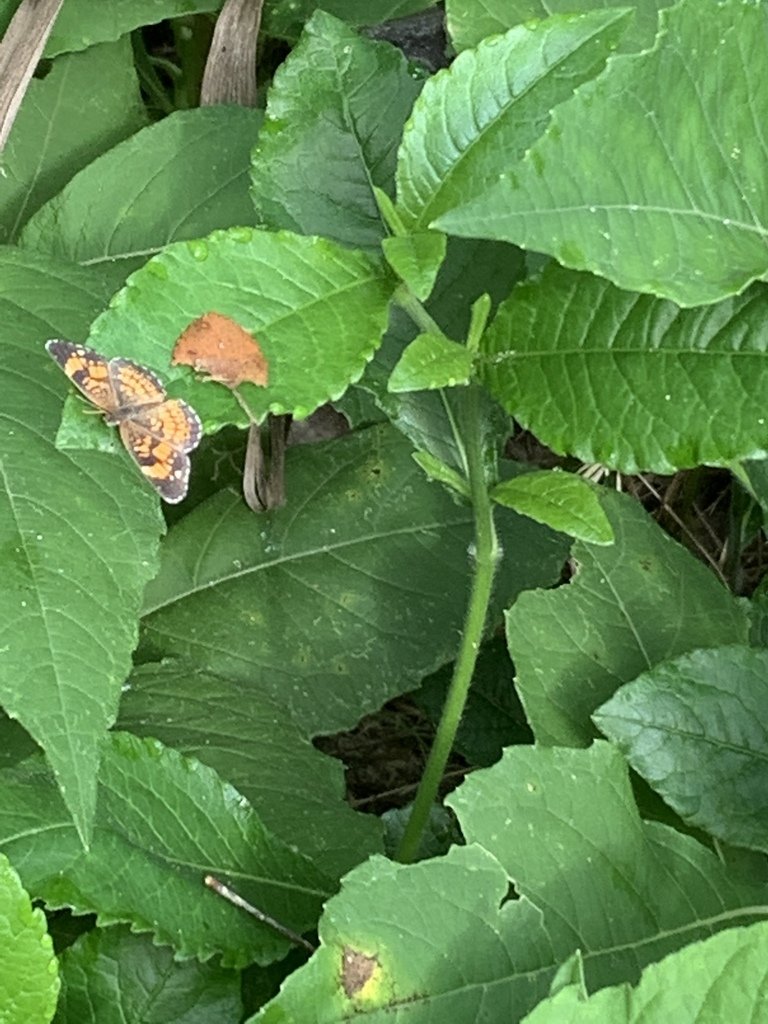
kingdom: Animalia
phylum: Arthropoda
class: Insecta
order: Lepidoptera
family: Nymphalidae
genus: Chlosyne
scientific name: Chlosyne nycteis
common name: Silvery Checkerspot
